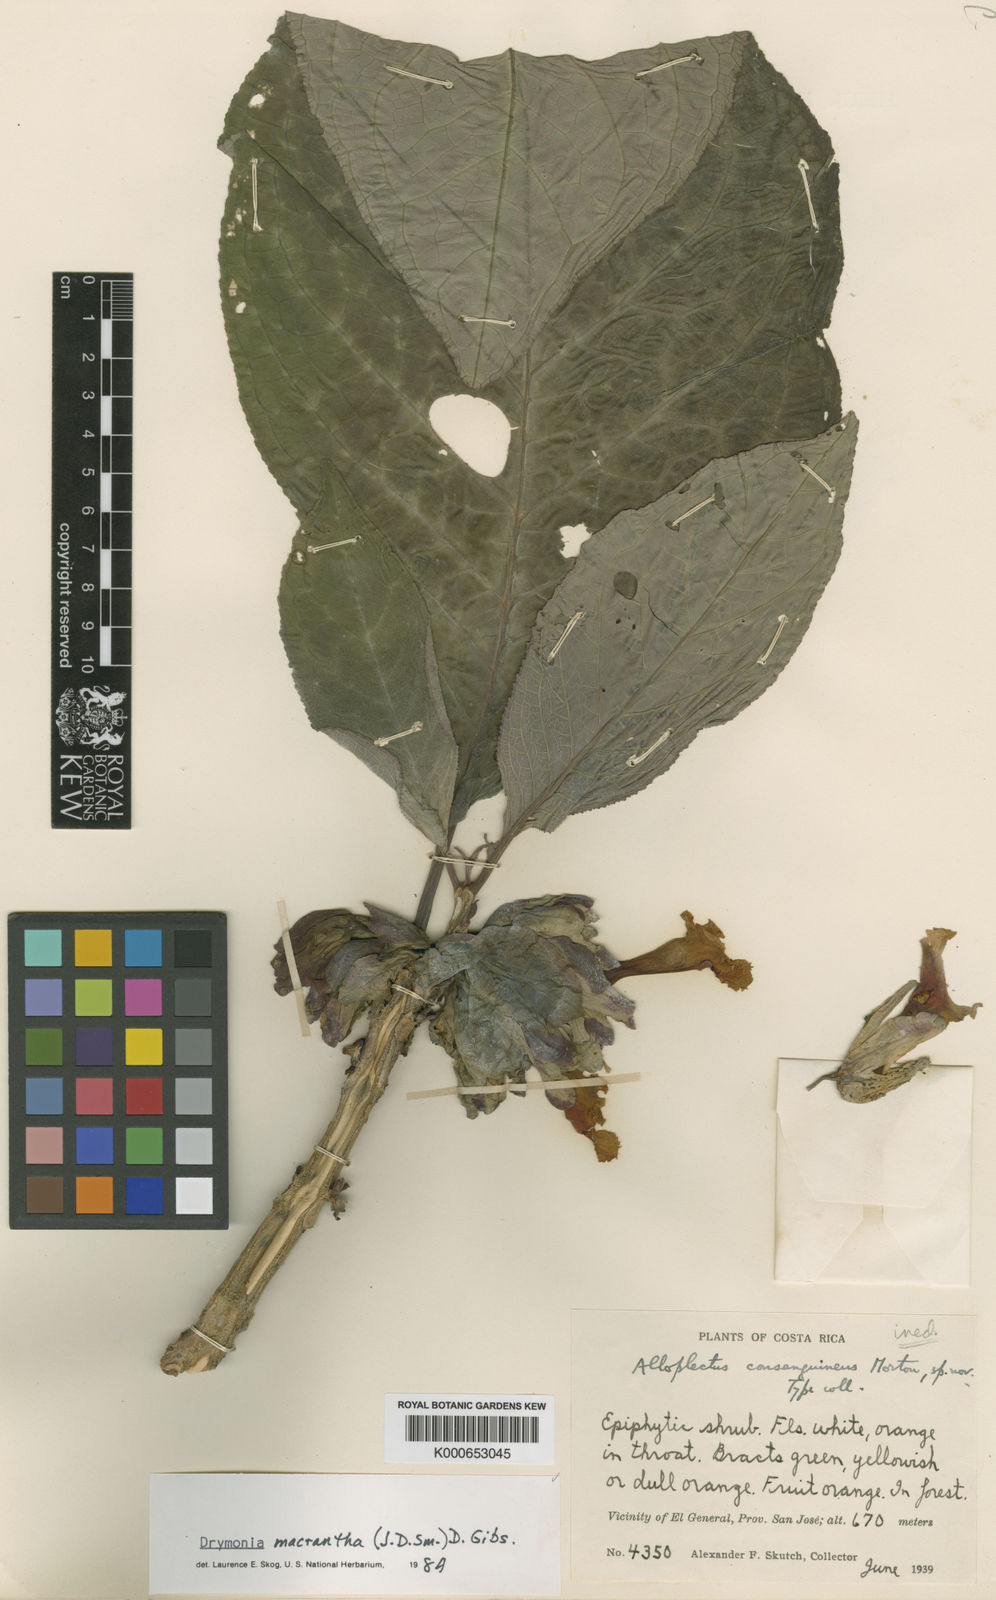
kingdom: Plantae
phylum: Tracheophyta
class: Magnoliopsida
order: Lamiales
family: Gesneriaceae
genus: Drymonia
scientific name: Drymonia macrantha
